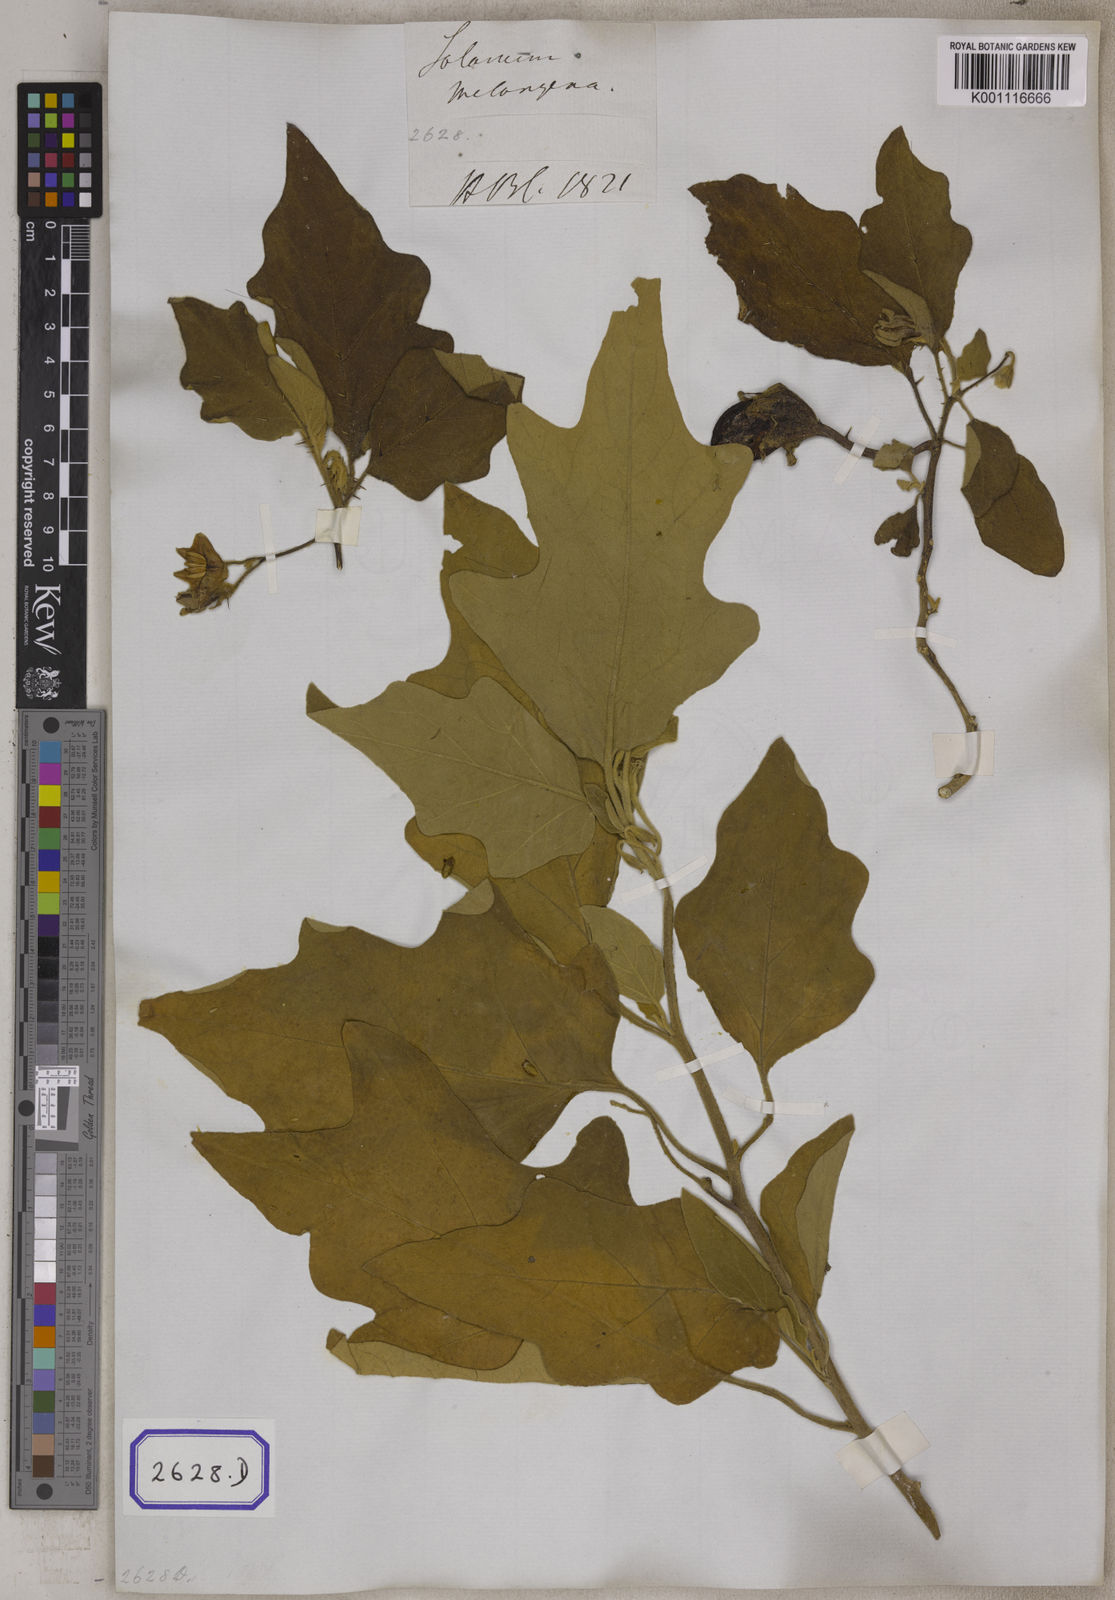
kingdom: Plantae
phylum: Tracheophyta
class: Magnoliopsida
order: Solanales
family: Solanaceae
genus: Solanum
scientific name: Solanum melongena
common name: Eggplant
